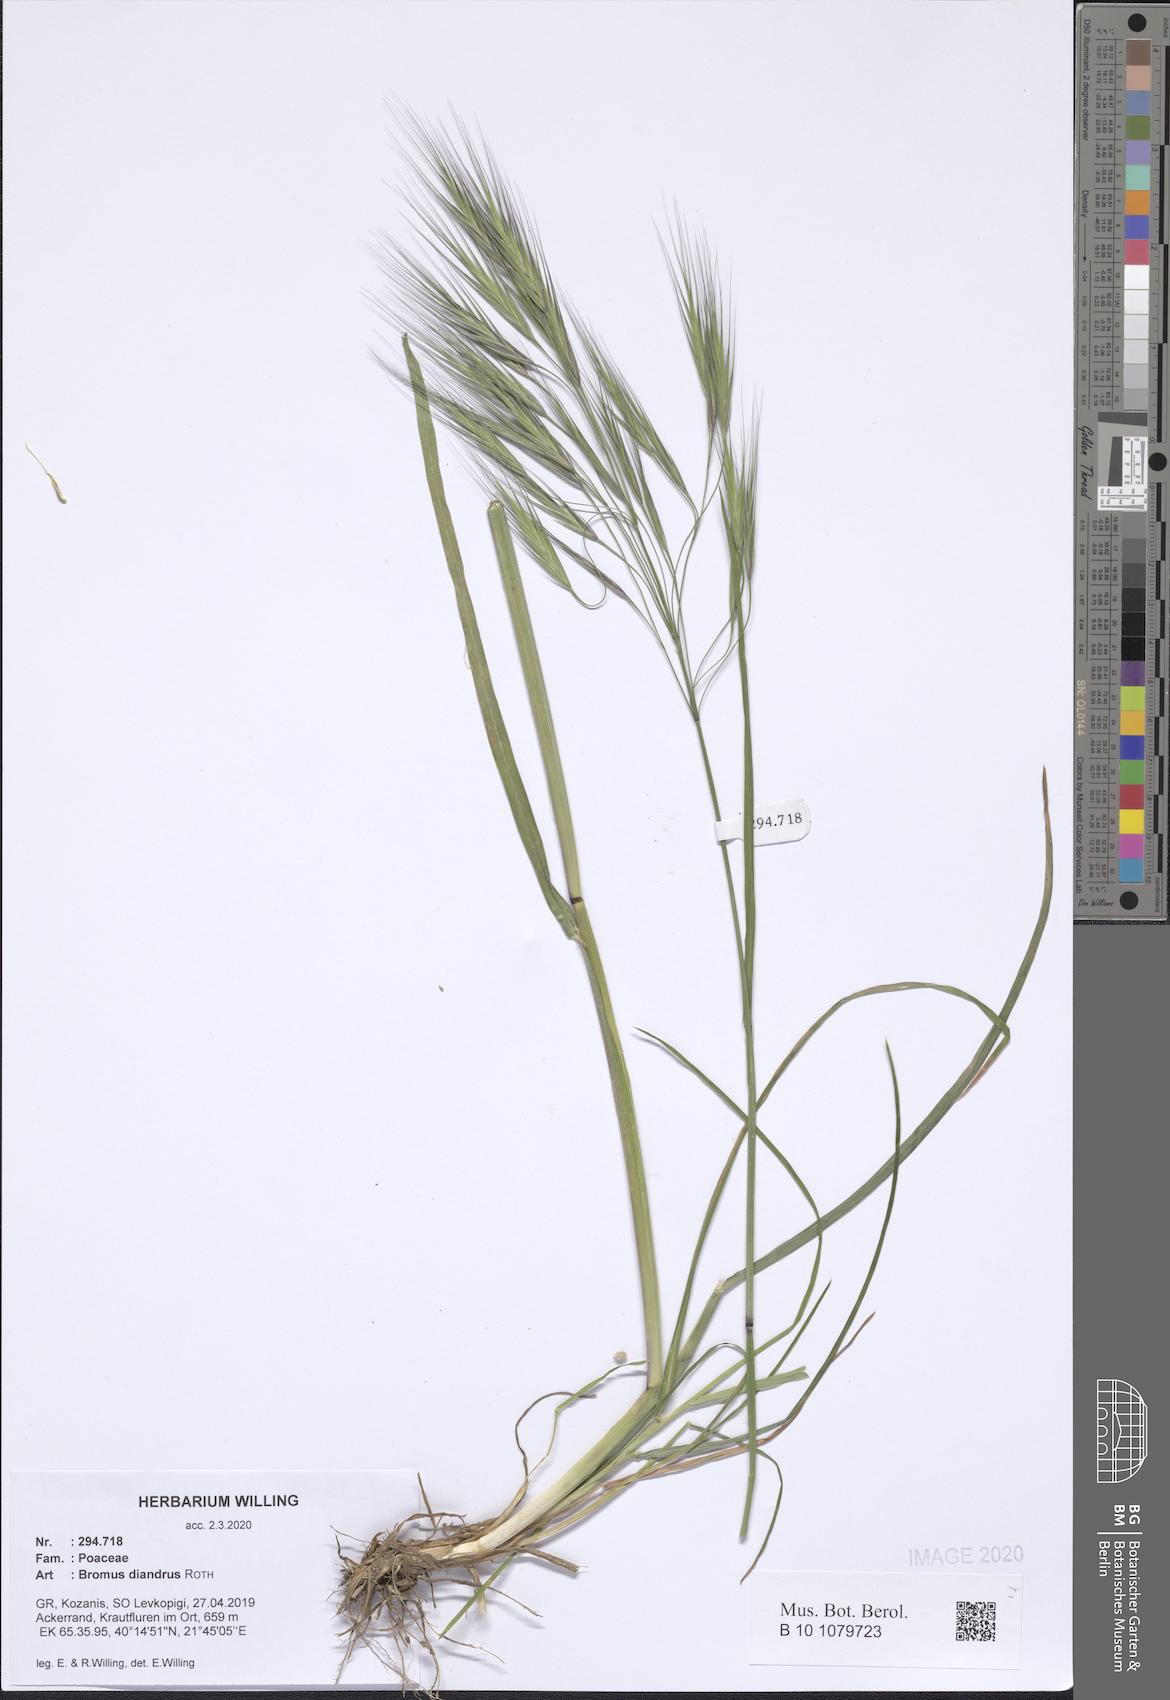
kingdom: Plantae
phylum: Tracheophyta
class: Liliopsida
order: Poales
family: Poaceae
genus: Bromus
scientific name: Bromus diandrus
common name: Ripgut brome
